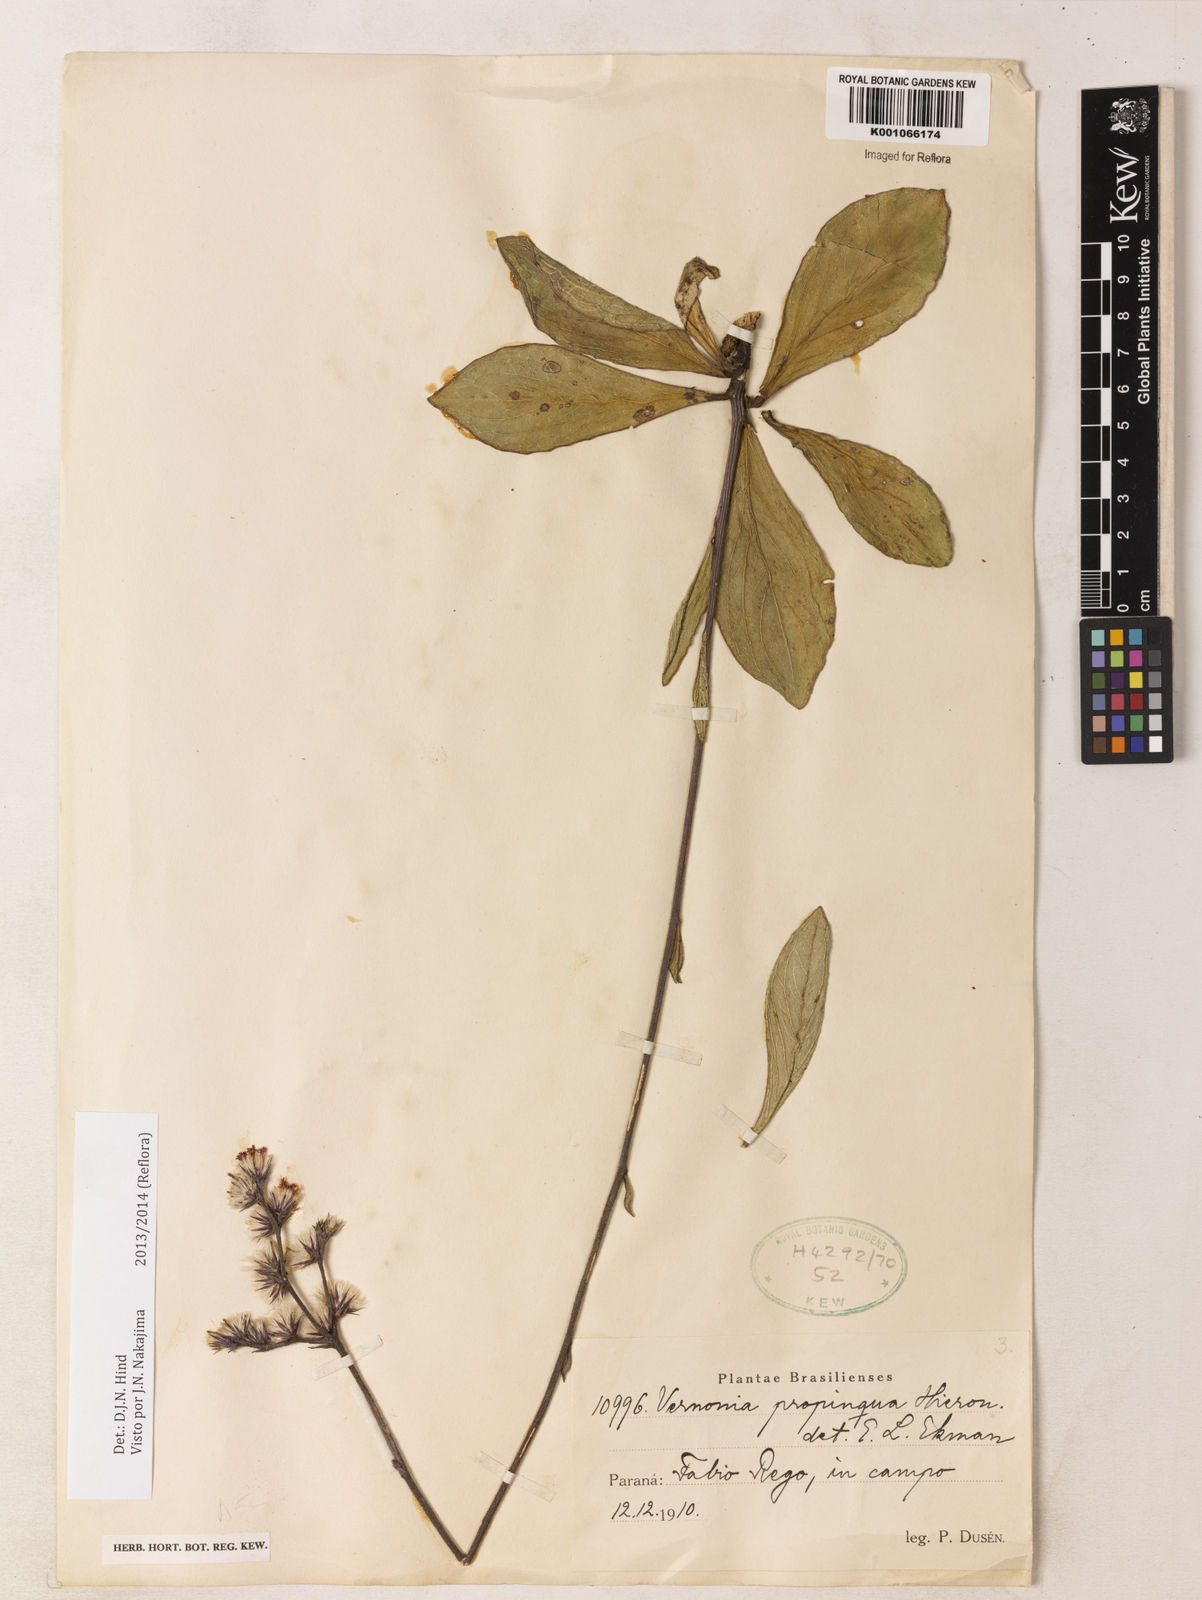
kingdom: Plantae
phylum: Tracheophyta
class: Magnoliopsida
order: Asterales
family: Asteraceae
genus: Chrysolaena
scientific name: Chrysolaena propinqua
